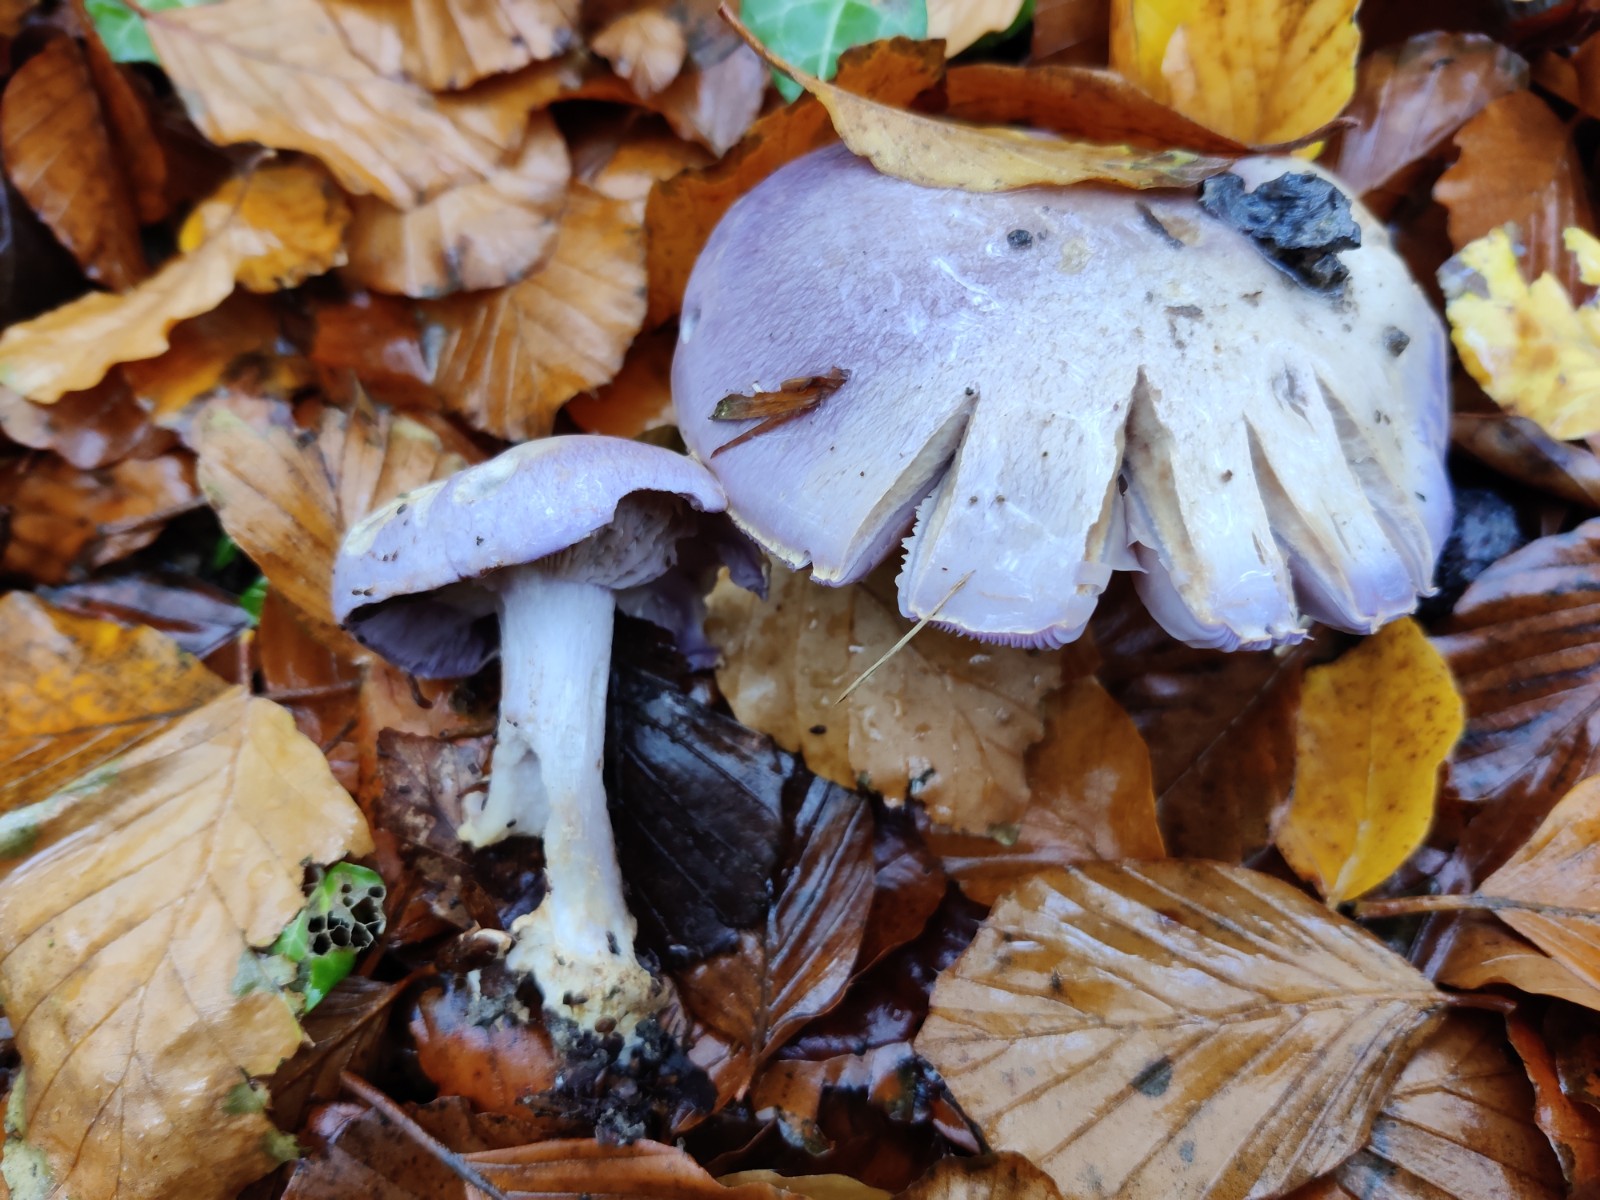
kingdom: Fungi
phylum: Basidiomycota
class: Agaricomycetes
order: Agaricales
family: Cortinariaceae
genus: Phlegmacium
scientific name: Phlegmacium eucaeruleum
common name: indigo-slørhat
